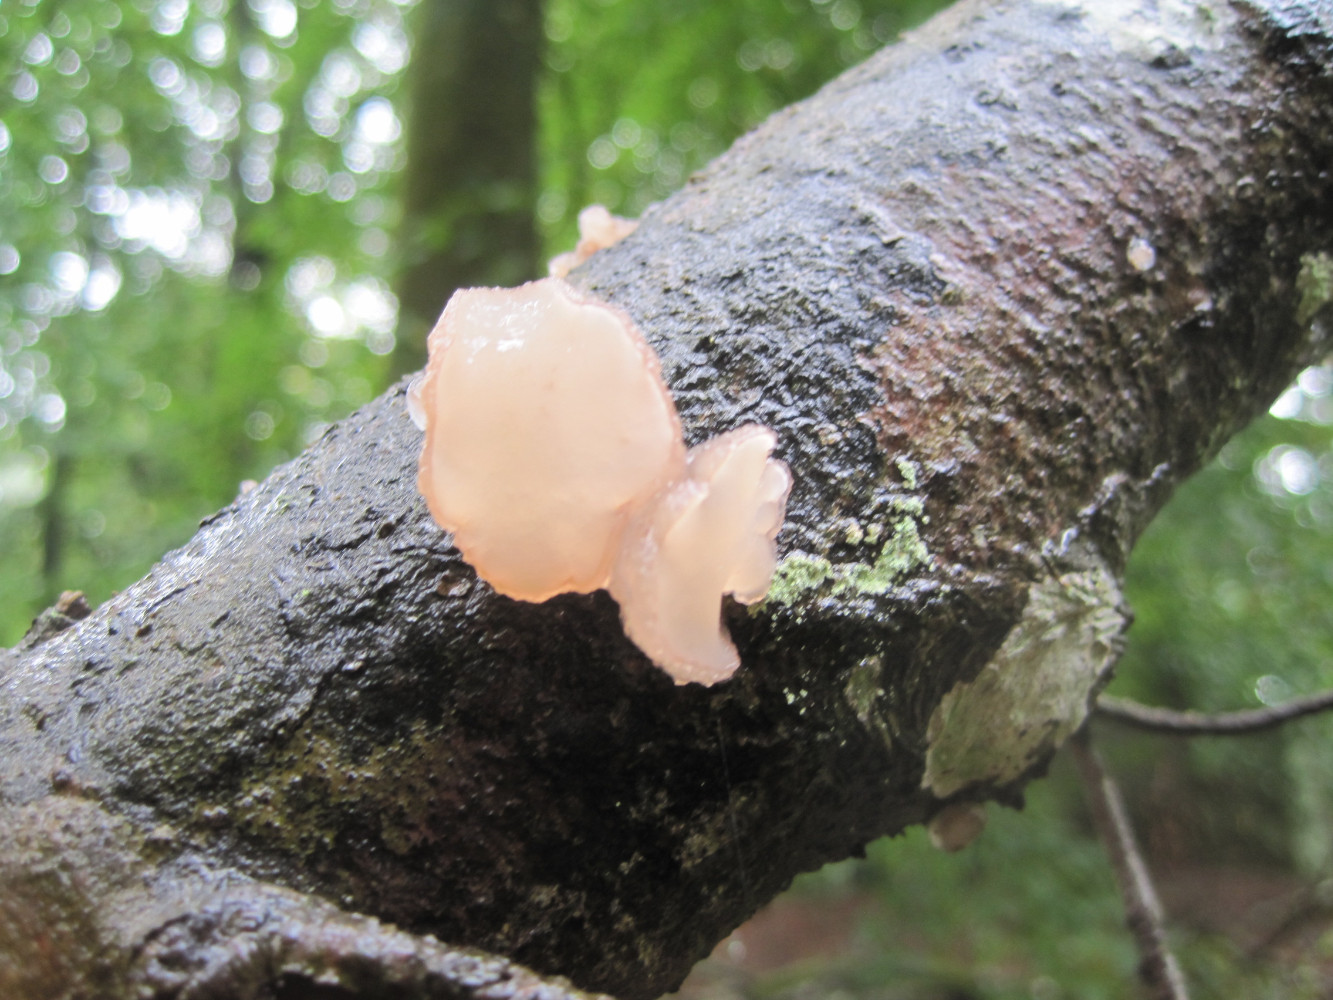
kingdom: Fungi
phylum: Ascomycota
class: Leotiomycetes
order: Helotiales
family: Gelatinodiscaceae
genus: Neobulgaria
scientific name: Neobulgaria pura
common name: bleg bævreskive
